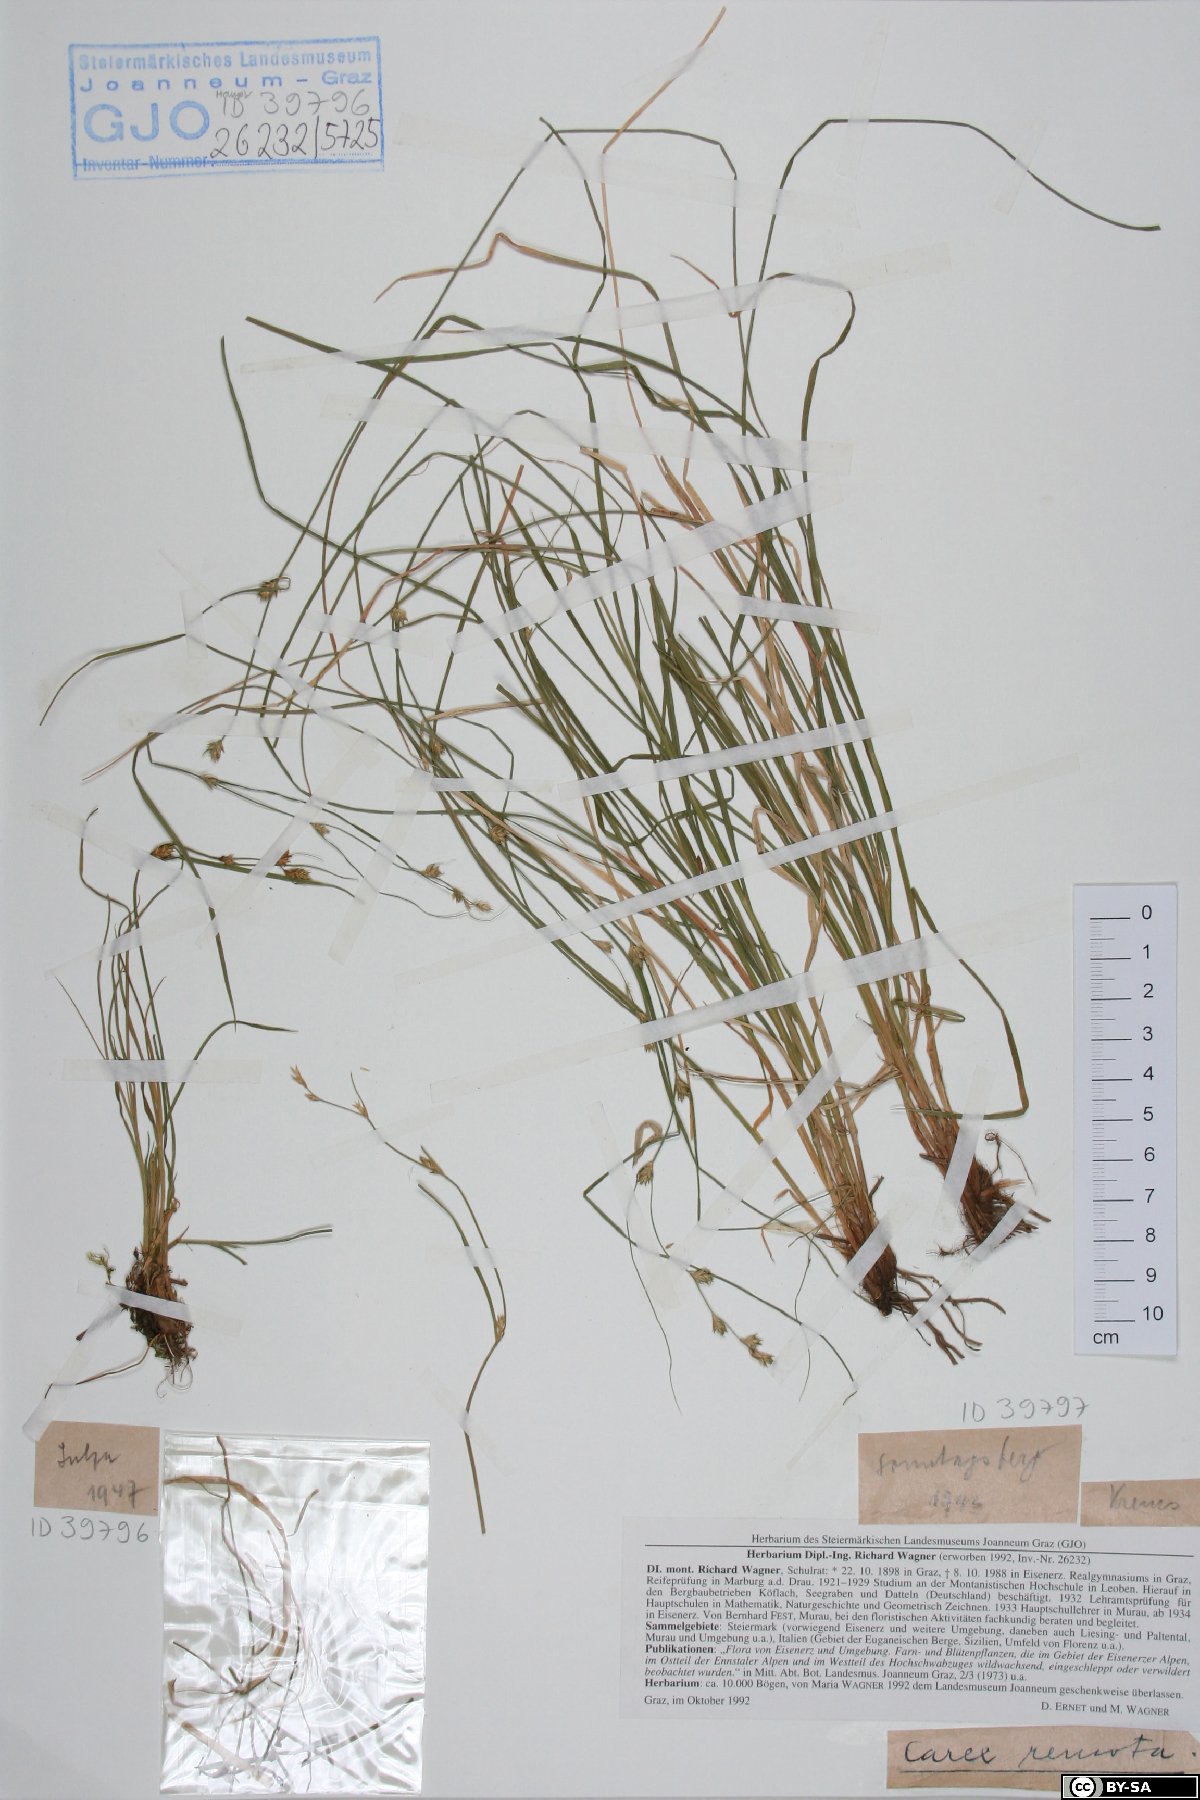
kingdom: Plantae
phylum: Tracheophyta
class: Liliopsida
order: Poales
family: Cyperaceae
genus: Carex
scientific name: Carex remota
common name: Remote sedge
